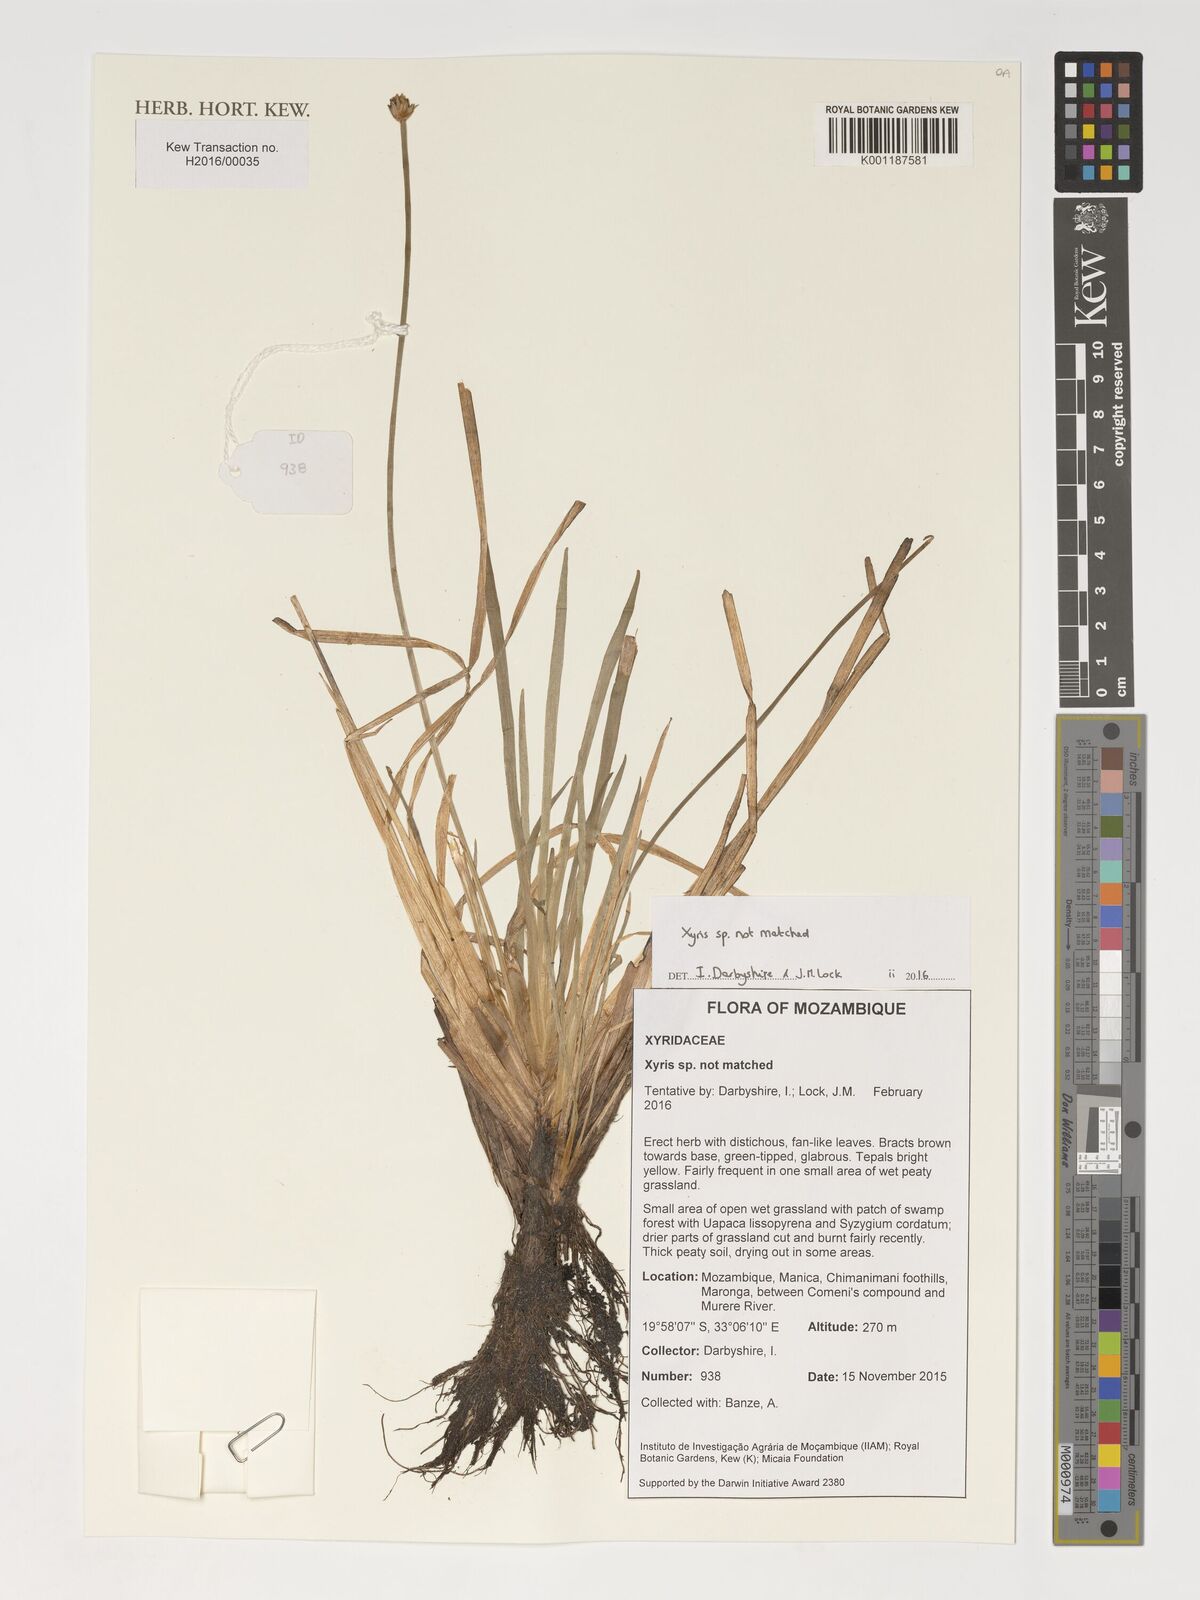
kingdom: Plantae
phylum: Tracheophyta
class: Liliopsida
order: Poales
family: Xyridaceae
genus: Xyris
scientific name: Xyris
